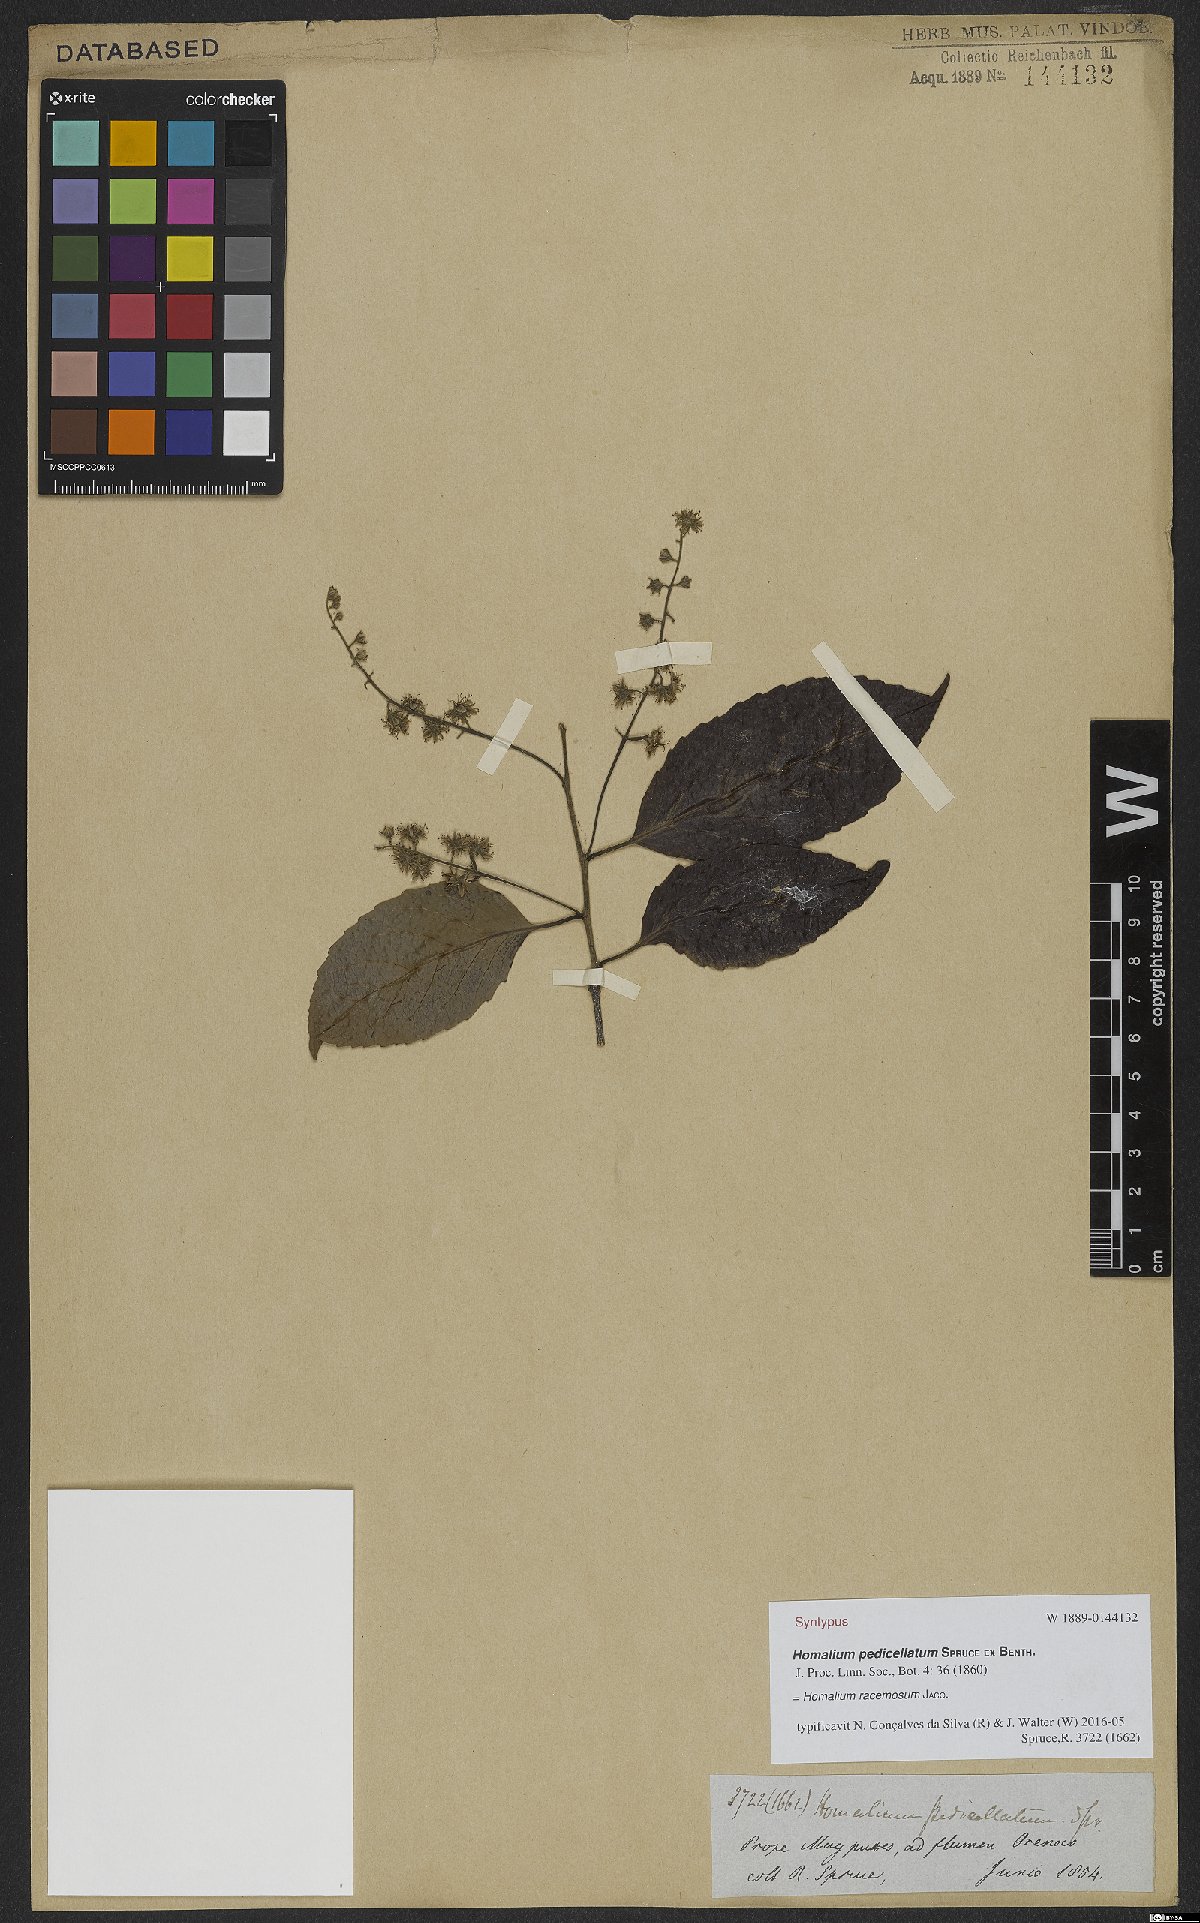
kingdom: Plantae
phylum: Tracheophyta
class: Magnoliopsida
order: Malpighiales
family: Salicaceae
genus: Homalium
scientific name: Homalium racemosum
